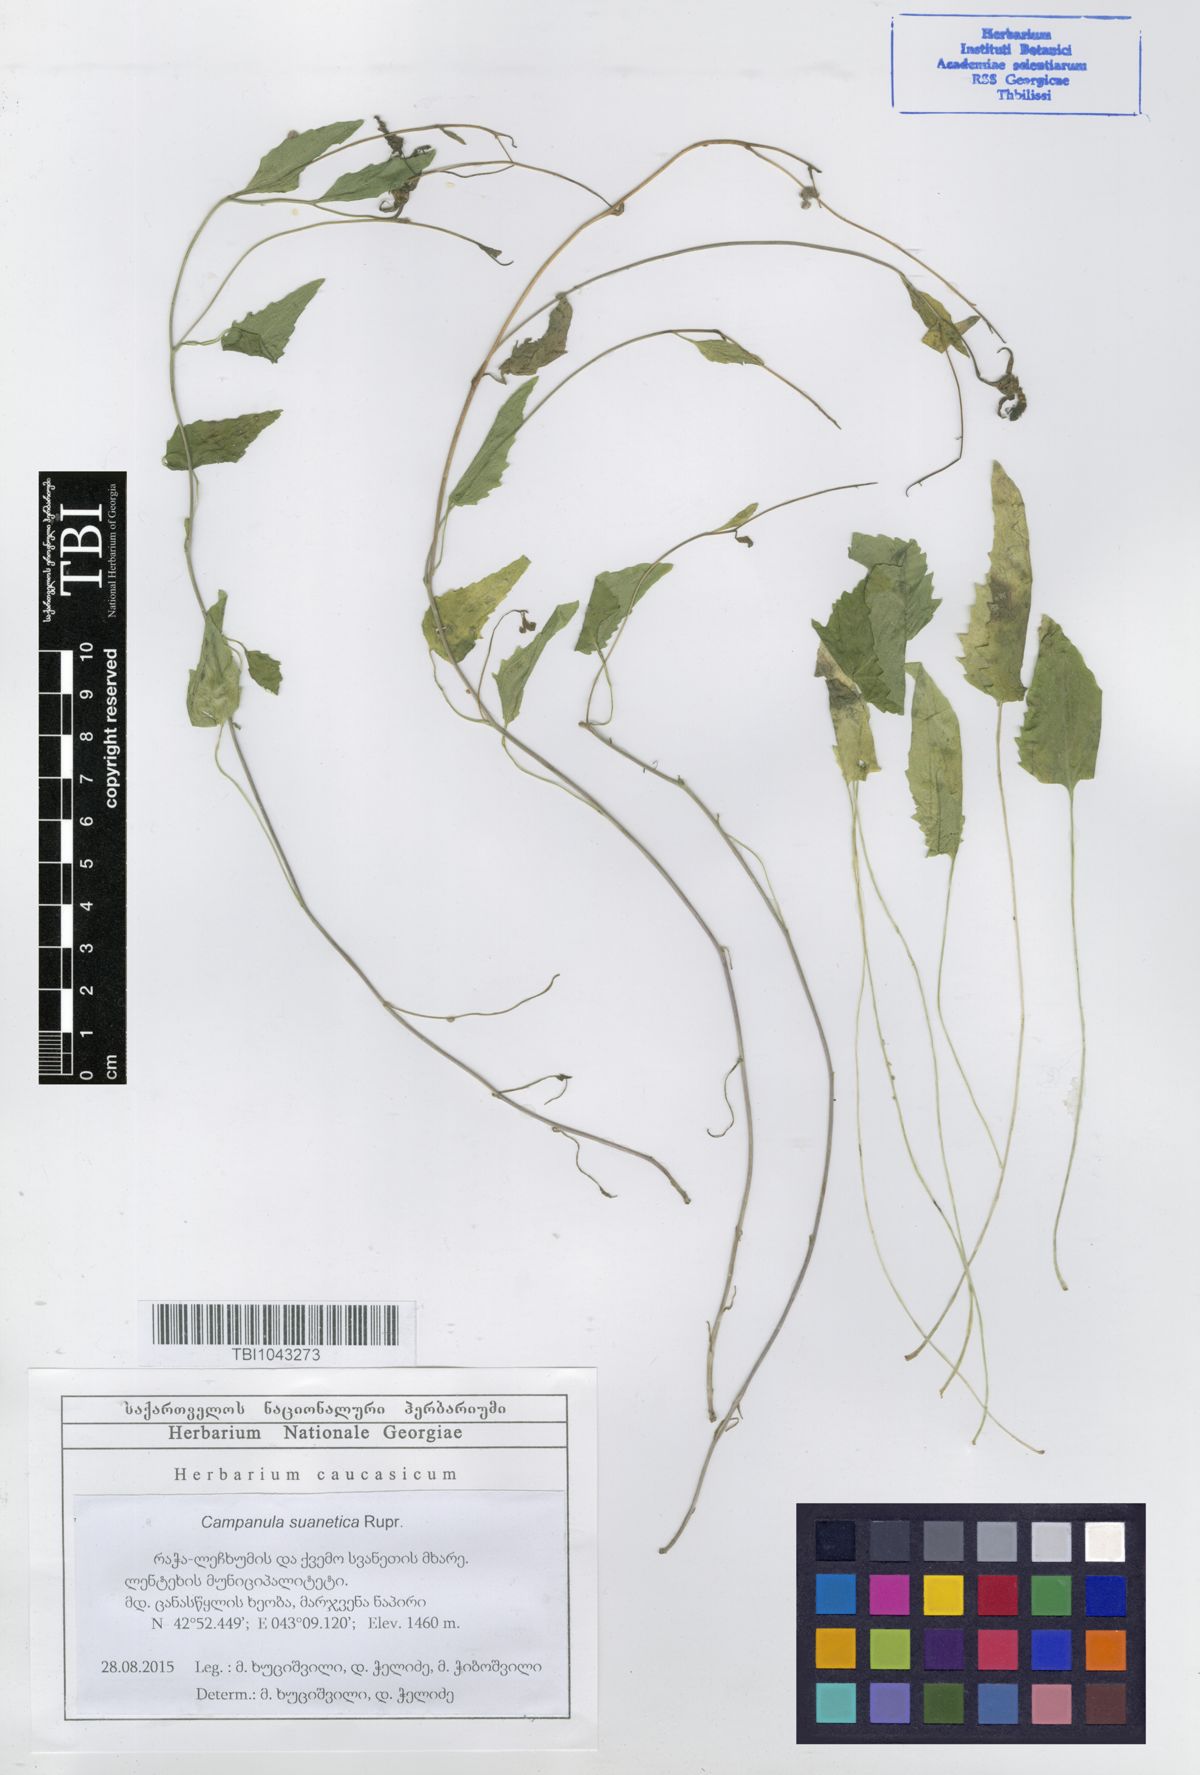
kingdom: Plantae
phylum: Tracheophyta
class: Magnoliopsida
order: Asterales
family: Campanulaceae
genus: Campanula
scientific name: Campanula suanetica
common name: Svanetian bellflower
